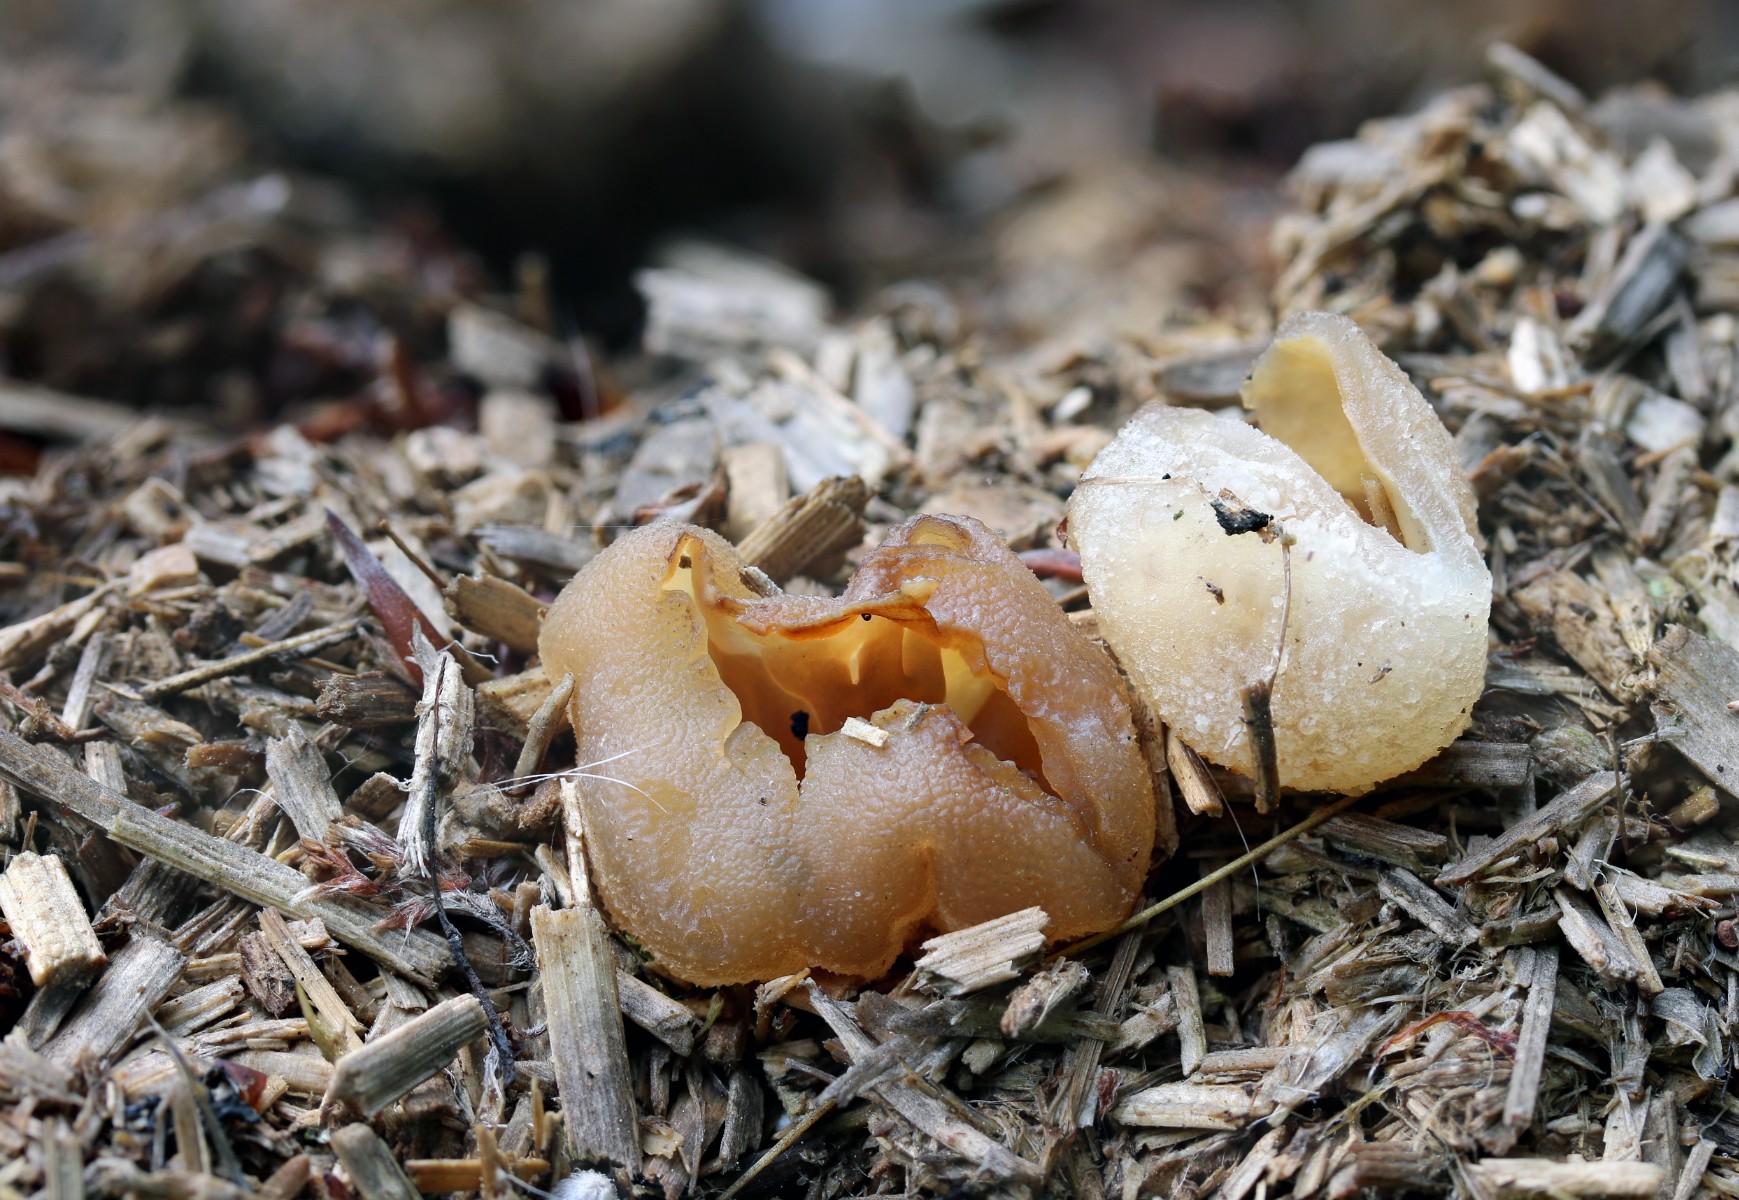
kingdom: Fungi
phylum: Ascomycota
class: Pezizomycetes
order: Pezizales
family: Pezizaceae
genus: Peziza
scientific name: Peziza vesiculosa
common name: blære-bægersvamp
